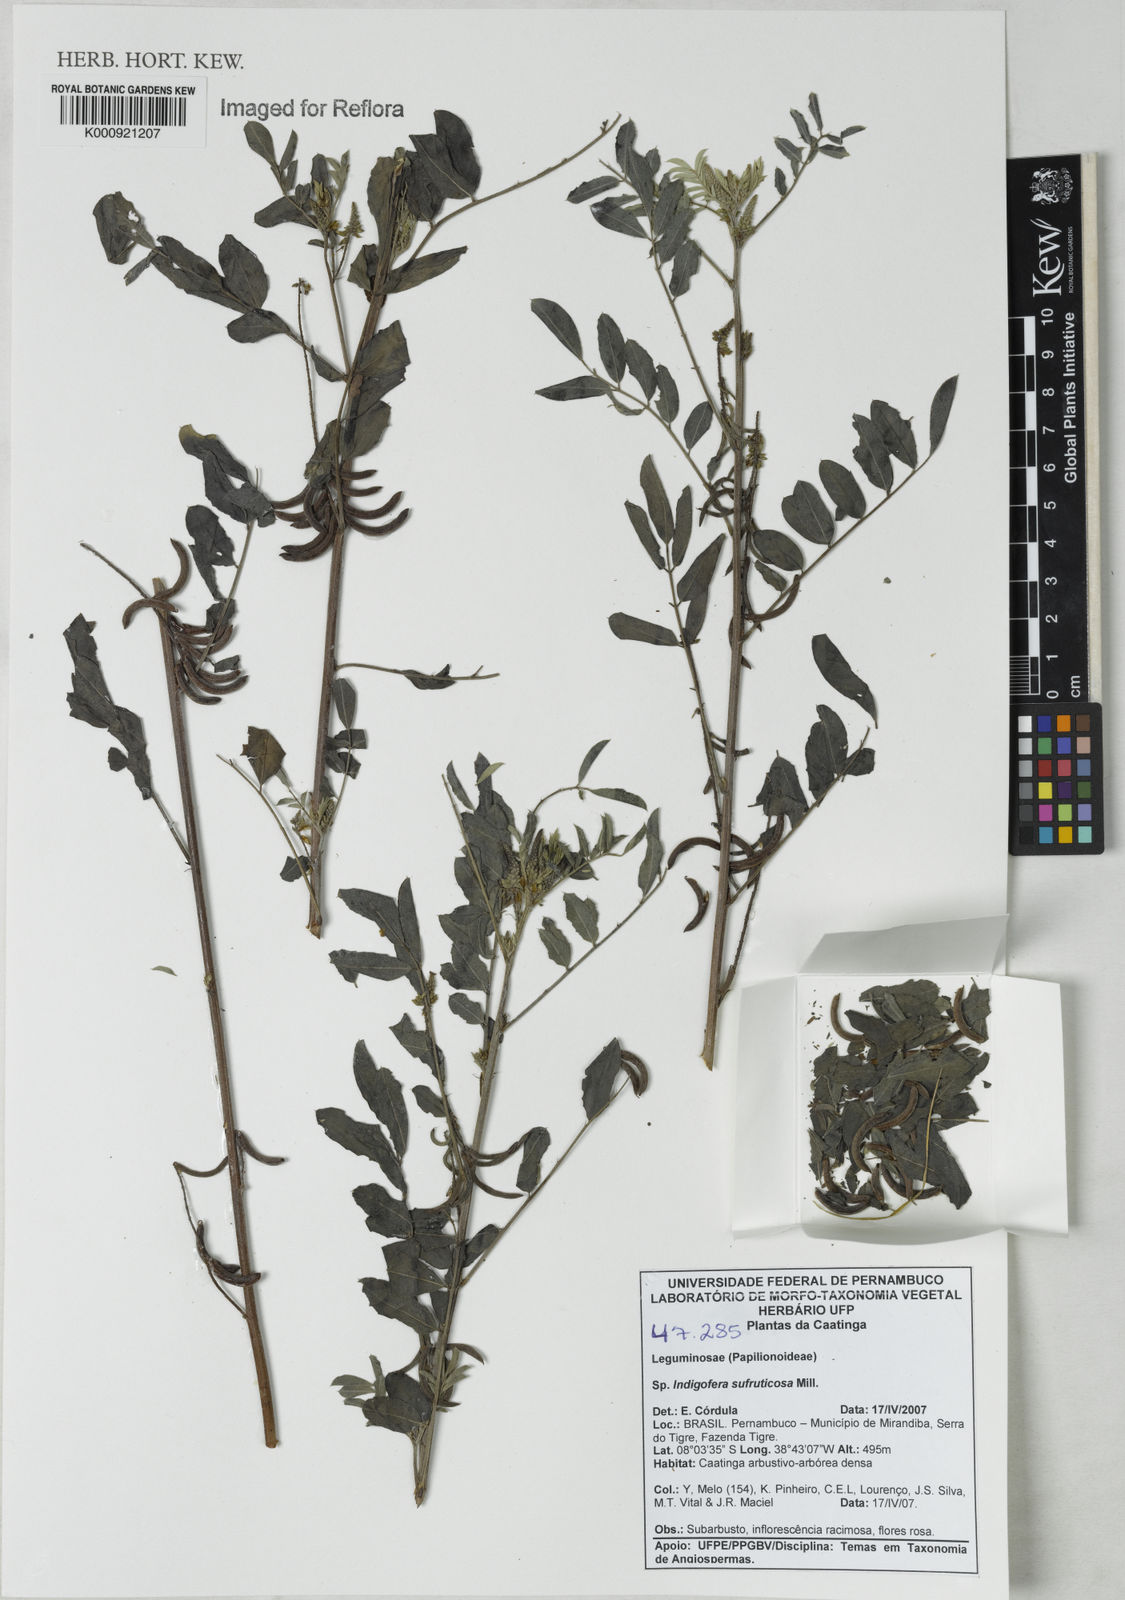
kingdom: Plantae
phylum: Tracheophyta
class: Magnoliopsida
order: Fabales
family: Fabaceae
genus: Indigofera
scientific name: Indigofera suffruticosa
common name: Anil de pasto
